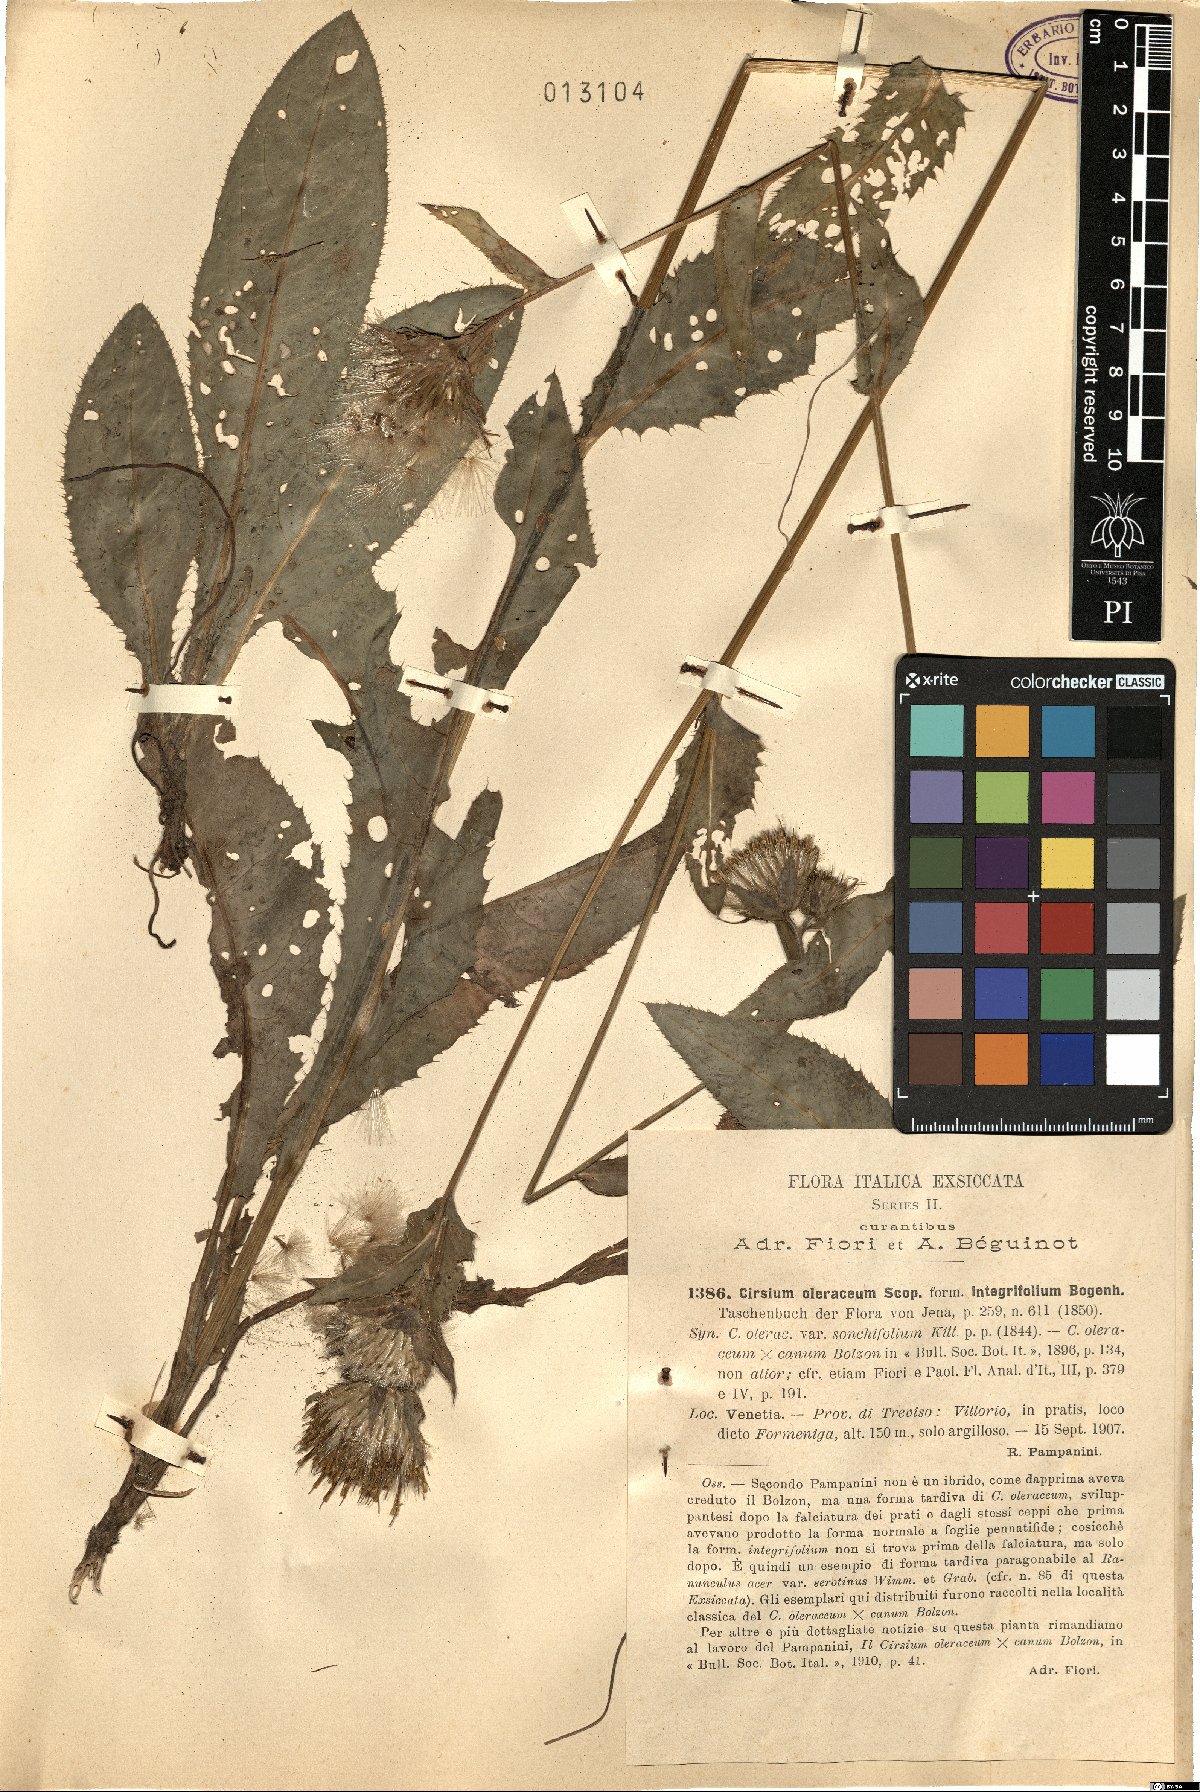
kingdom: Plantae
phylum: Tracheophyta
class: Magnoliopsida
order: Asterales
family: Asteraceae
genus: Cirsium
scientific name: Cirsium oleraceum
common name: Cabbage thistle
